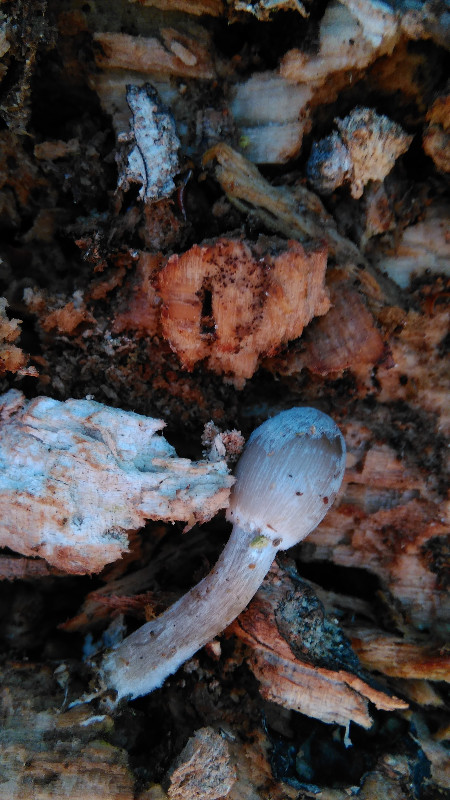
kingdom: Fungi
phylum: Basidiomycota
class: Agaricomycetes
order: Agaricales
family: Psathyrellaceae
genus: Coprinopsis
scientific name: Coprinopsis insignis
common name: stor blækhat
